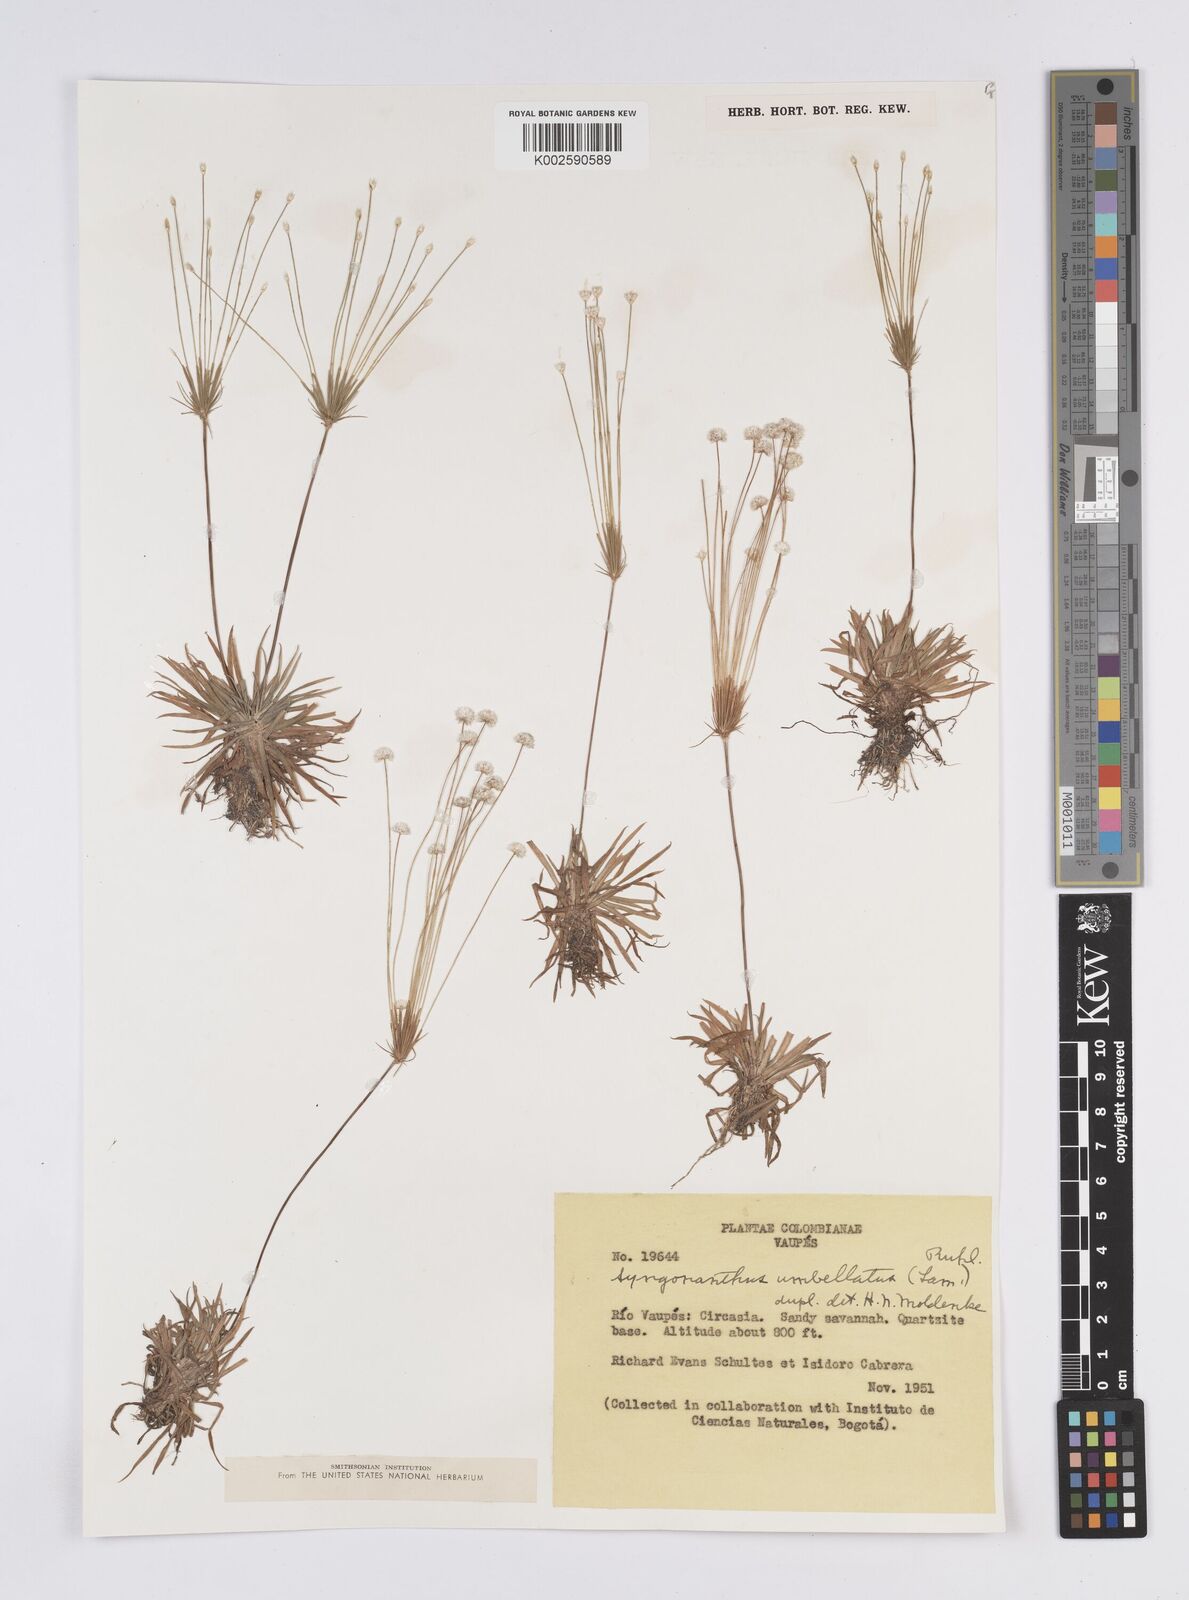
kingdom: Plantae
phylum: Tracheophyta
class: Liliopsida
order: Poales
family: Eriocaulaceae
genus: Syngonanthus
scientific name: Syngonanthus umbellatus
